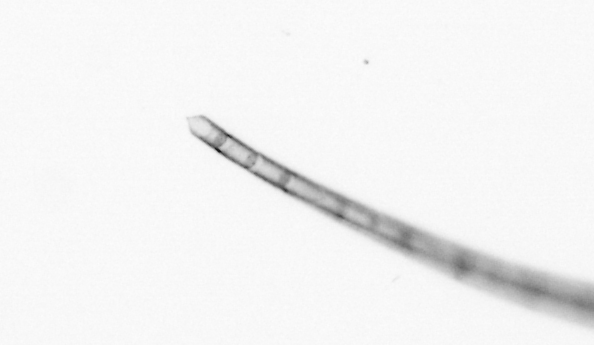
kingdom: Chromista
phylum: Ochrophyta
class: Bacillariophyceae
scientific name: Bacillariophyceae
